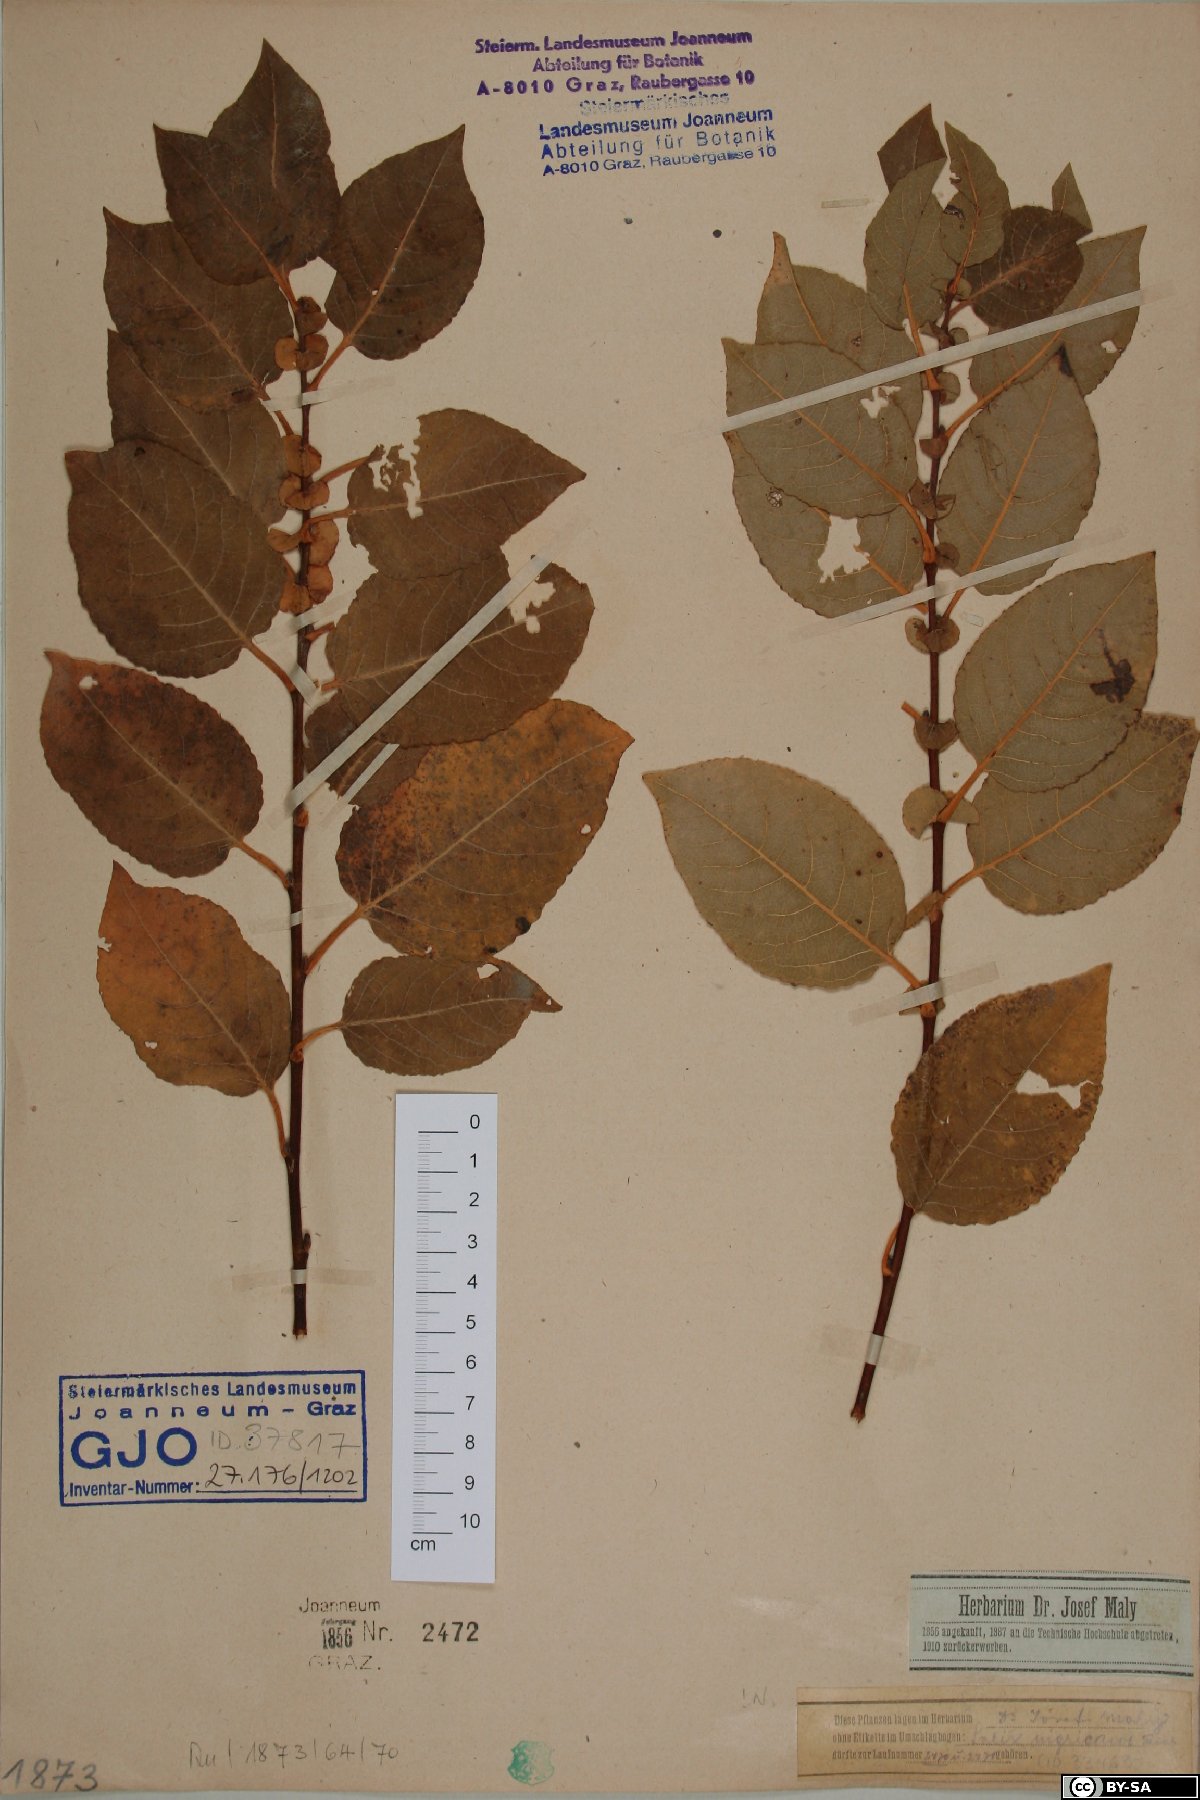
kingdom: Plantae
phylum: Tracheophyta
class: Magnoliopsida
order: Malpighiales
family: Salicaceae
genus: Salix
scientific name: Salix myrsinifolia
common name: Dark-leaved willow
